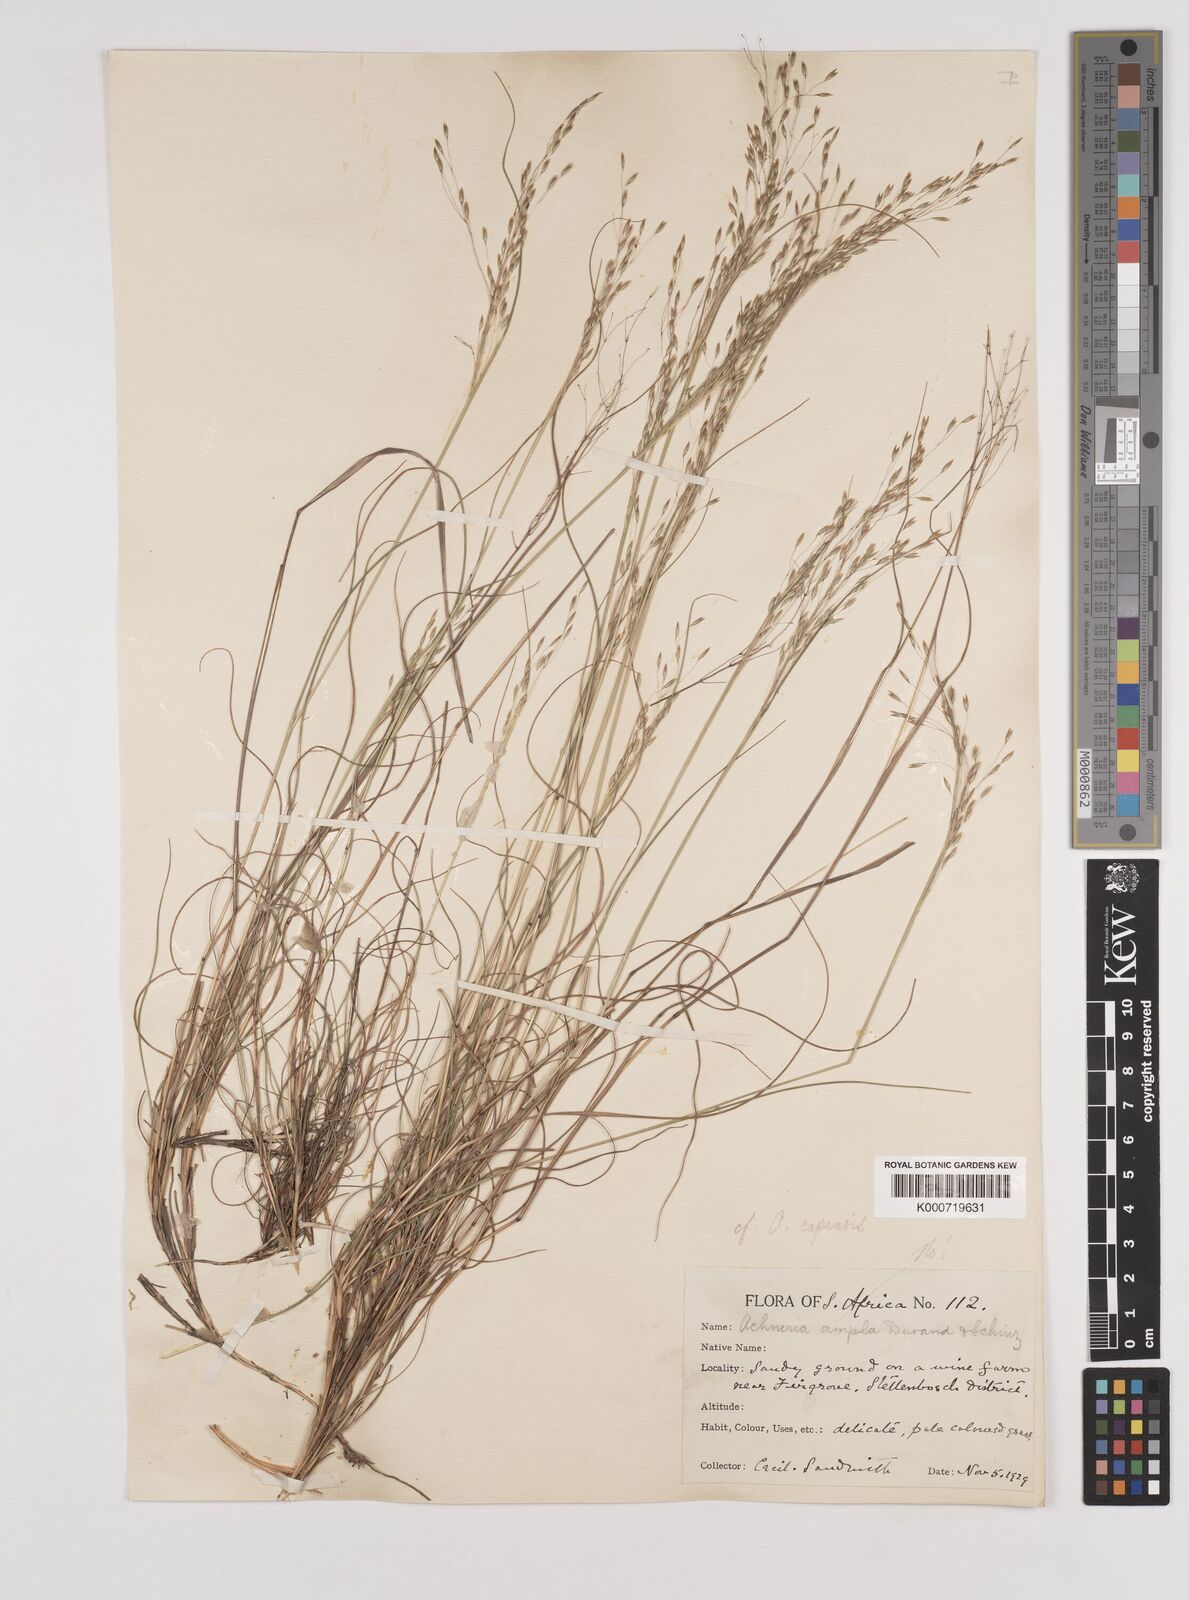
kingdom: Plantae
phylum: Tracheophyta
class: Liliopsida
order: Poales
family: Poaceae
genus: Pentameris
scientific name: Pentameris malouinensis
